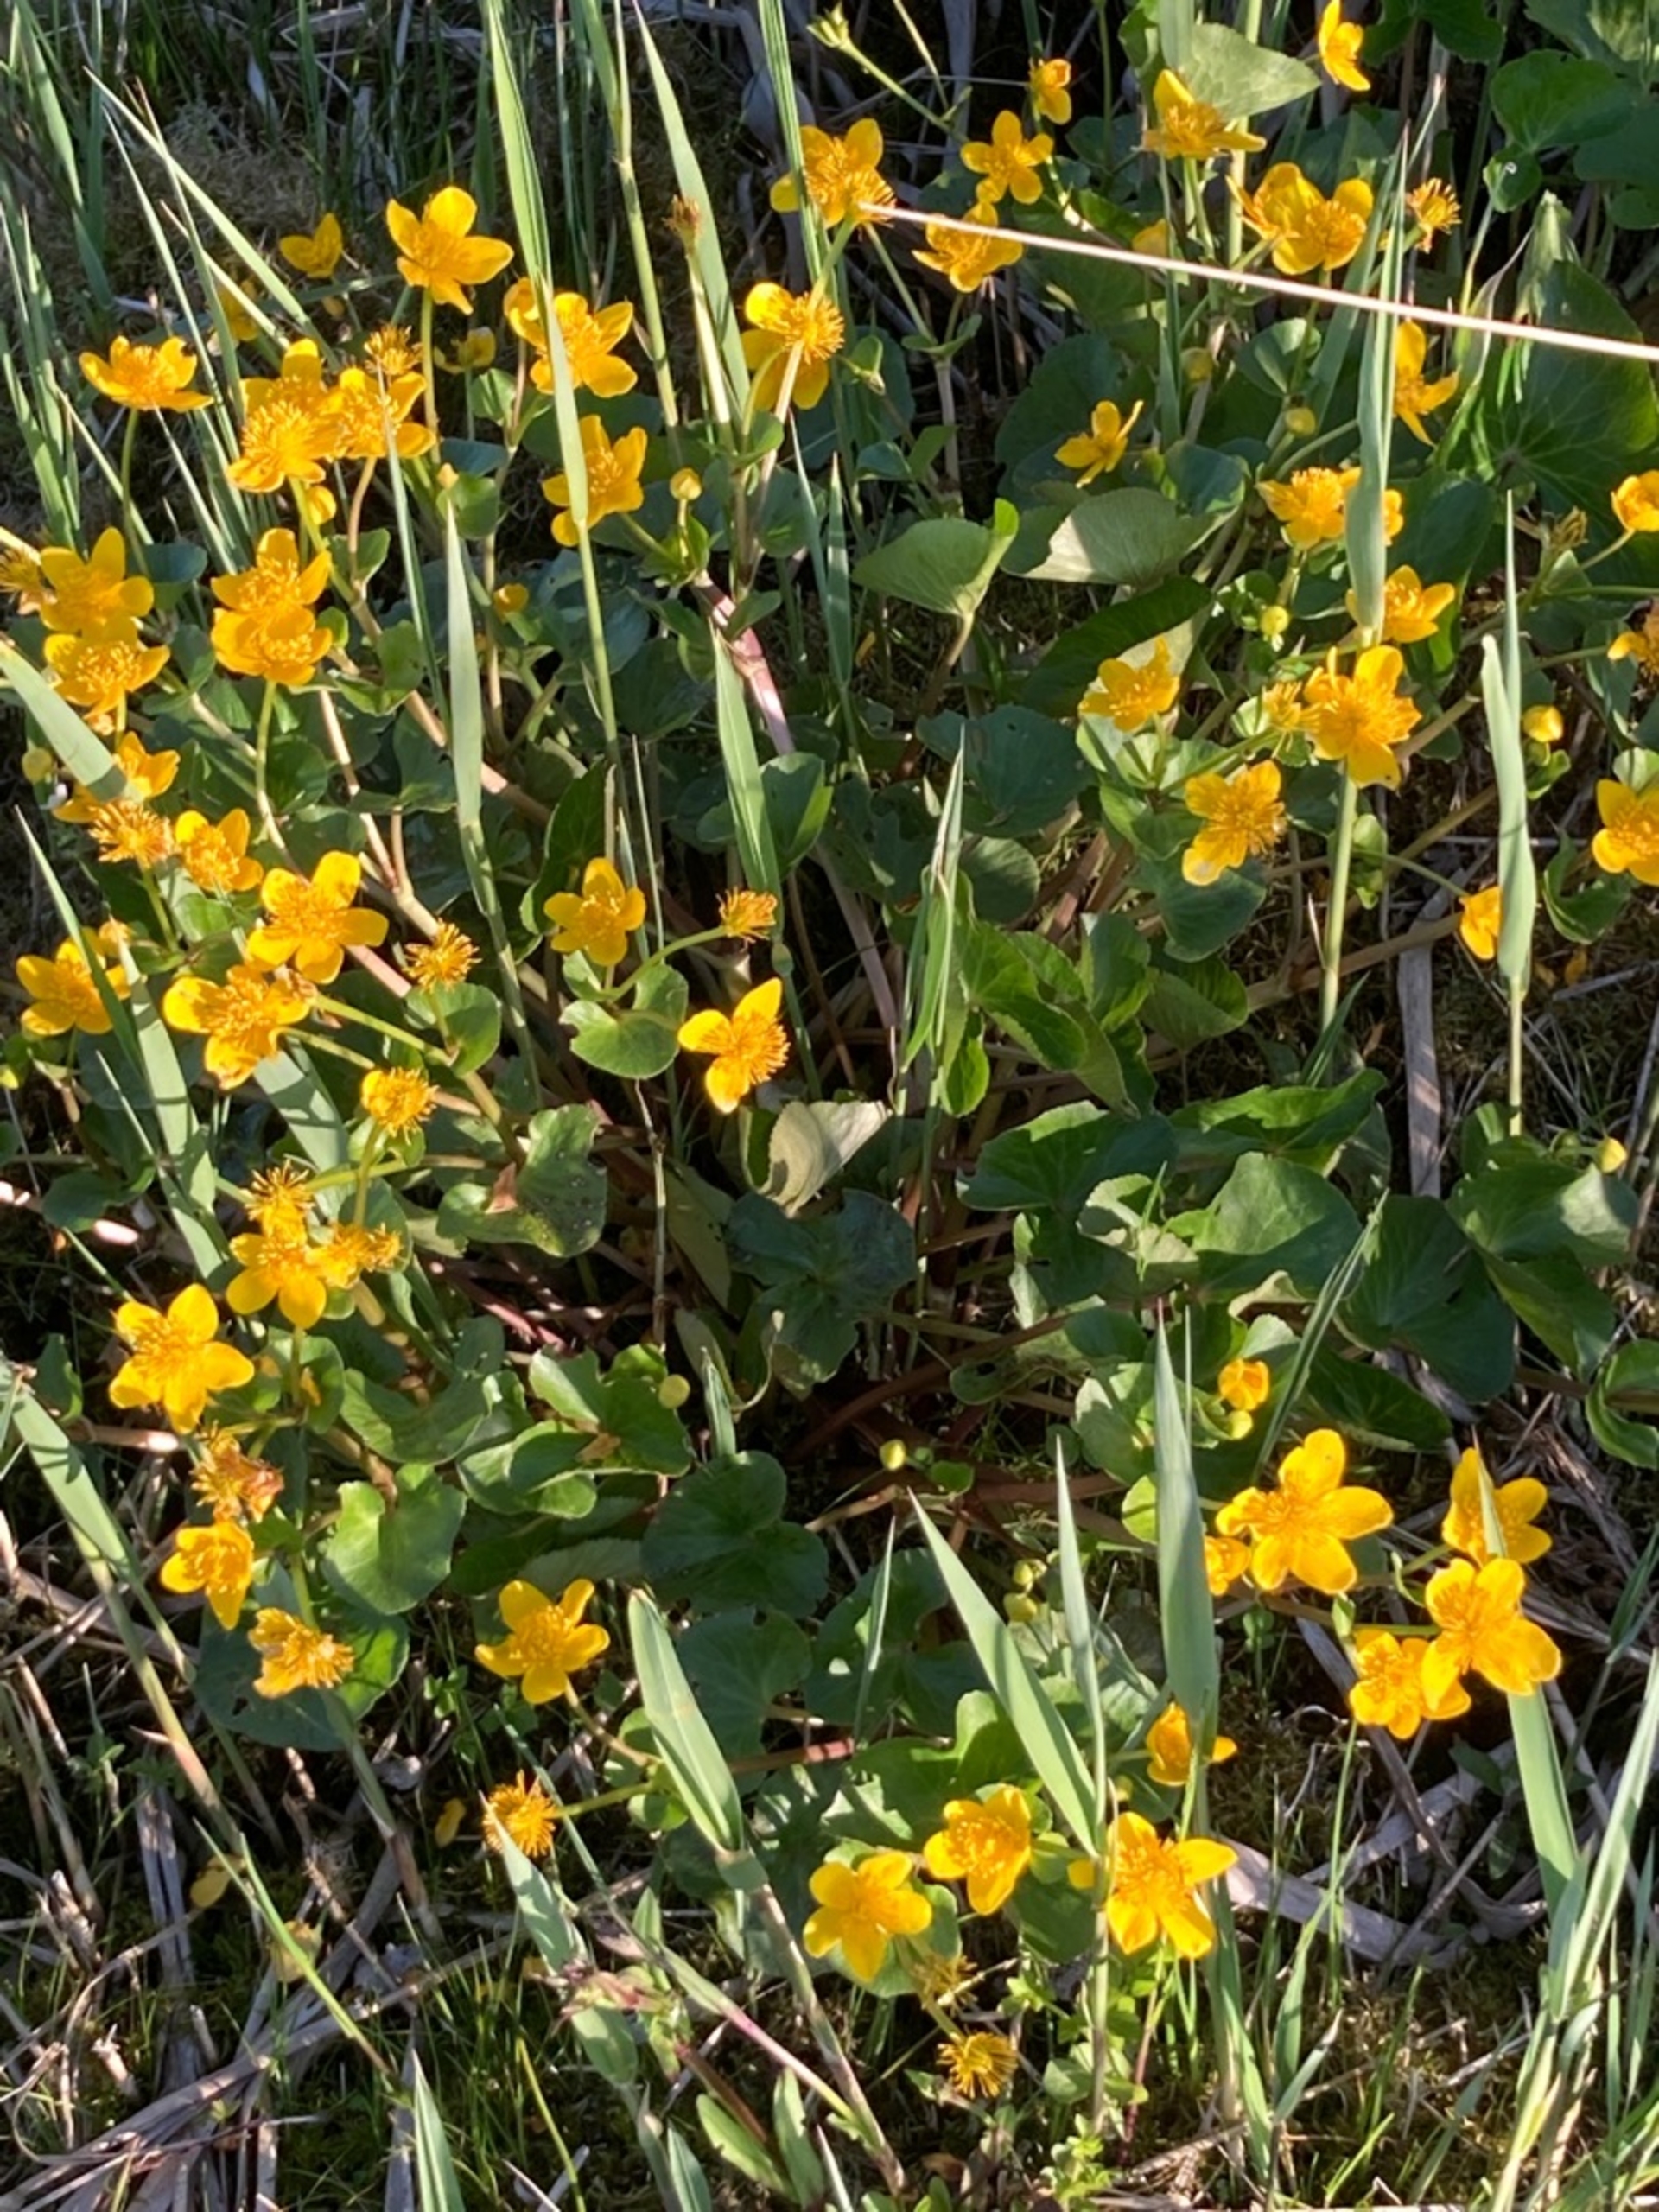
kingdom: Plantae
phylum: Tracheophyta
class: Magnoliopsida
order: Ranunculales
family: Ranunculaceae
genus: Caltha
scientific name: Caltha palustris
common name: Eng-kabbeleje
